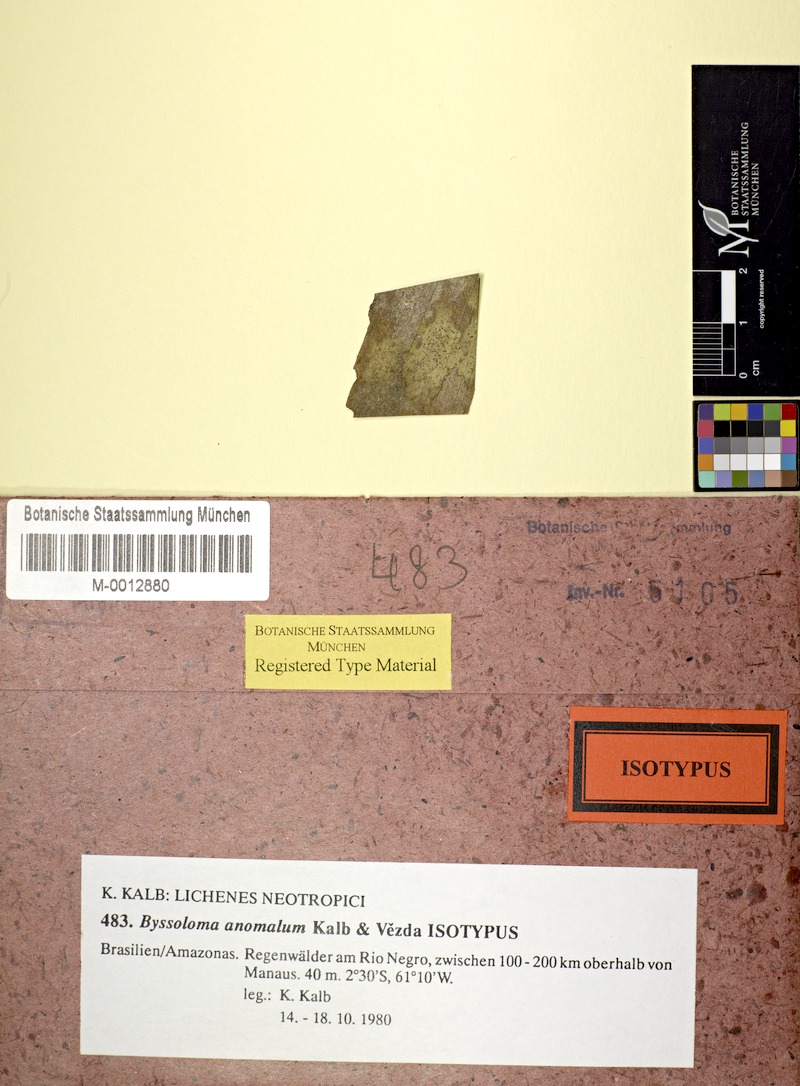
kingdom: Fungi
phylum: Ascomycota
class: Lecanoromycetes
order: Lecanorales
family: Byssolomataceae
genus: Byssoloma
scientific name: Byssoloma anomalum
